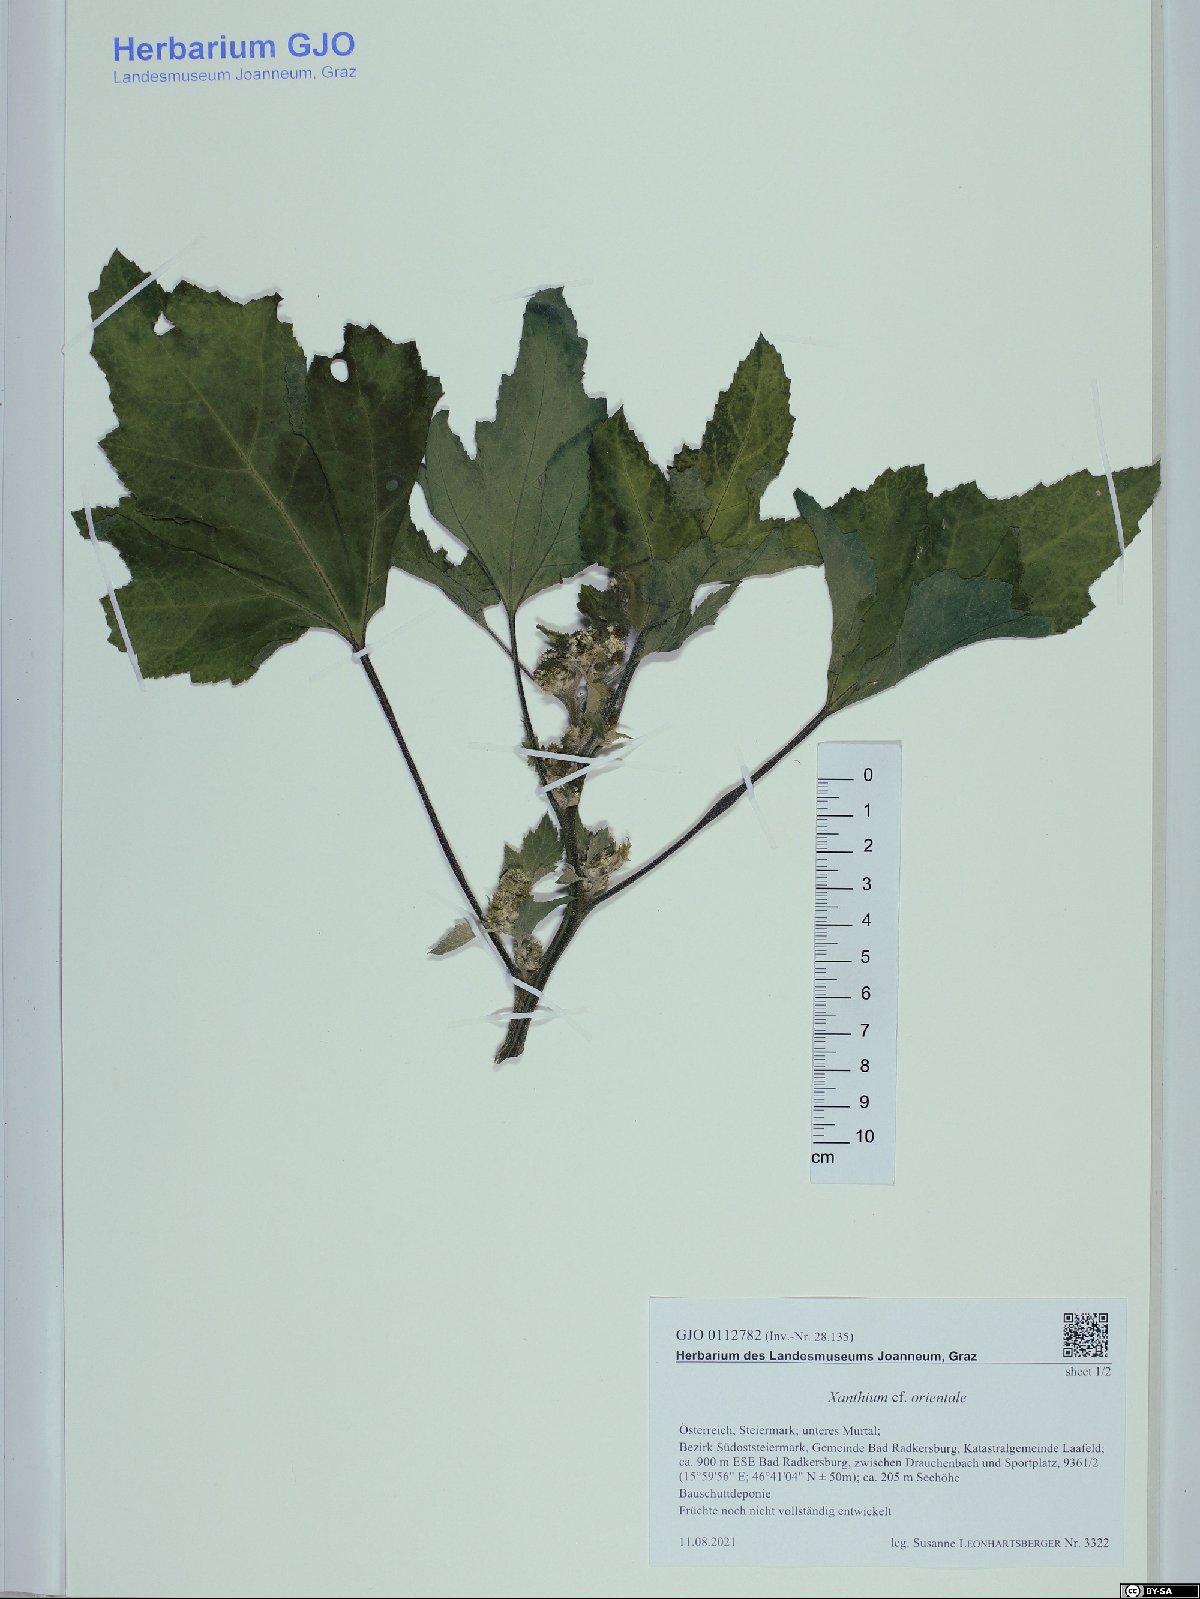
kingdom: Plantae
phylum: Tracheophyta
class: Magnoliopsida
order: Asterales
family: Asteraceae
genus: Xanthium
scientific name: Xanthium orientale
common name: Californian burr
